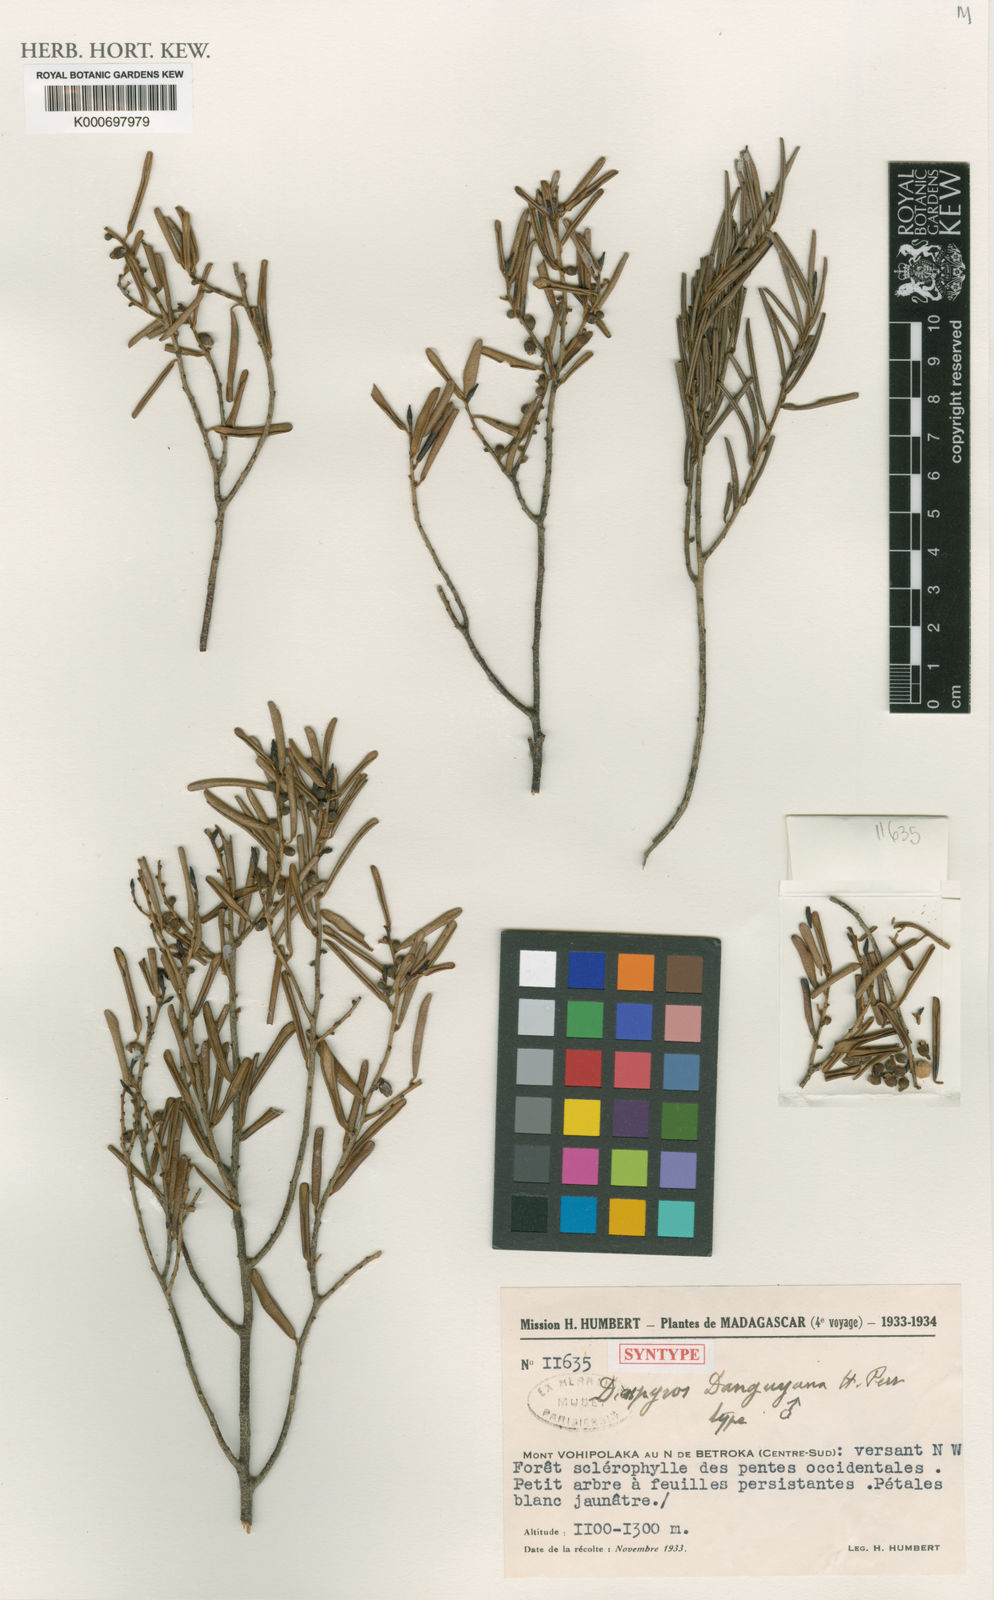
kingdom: Plantae
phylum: Tracheophyta
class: Magnoliopsida
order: Ericales
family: Ebenaceae
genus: Diospyros
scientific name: Diospyros danguyana
